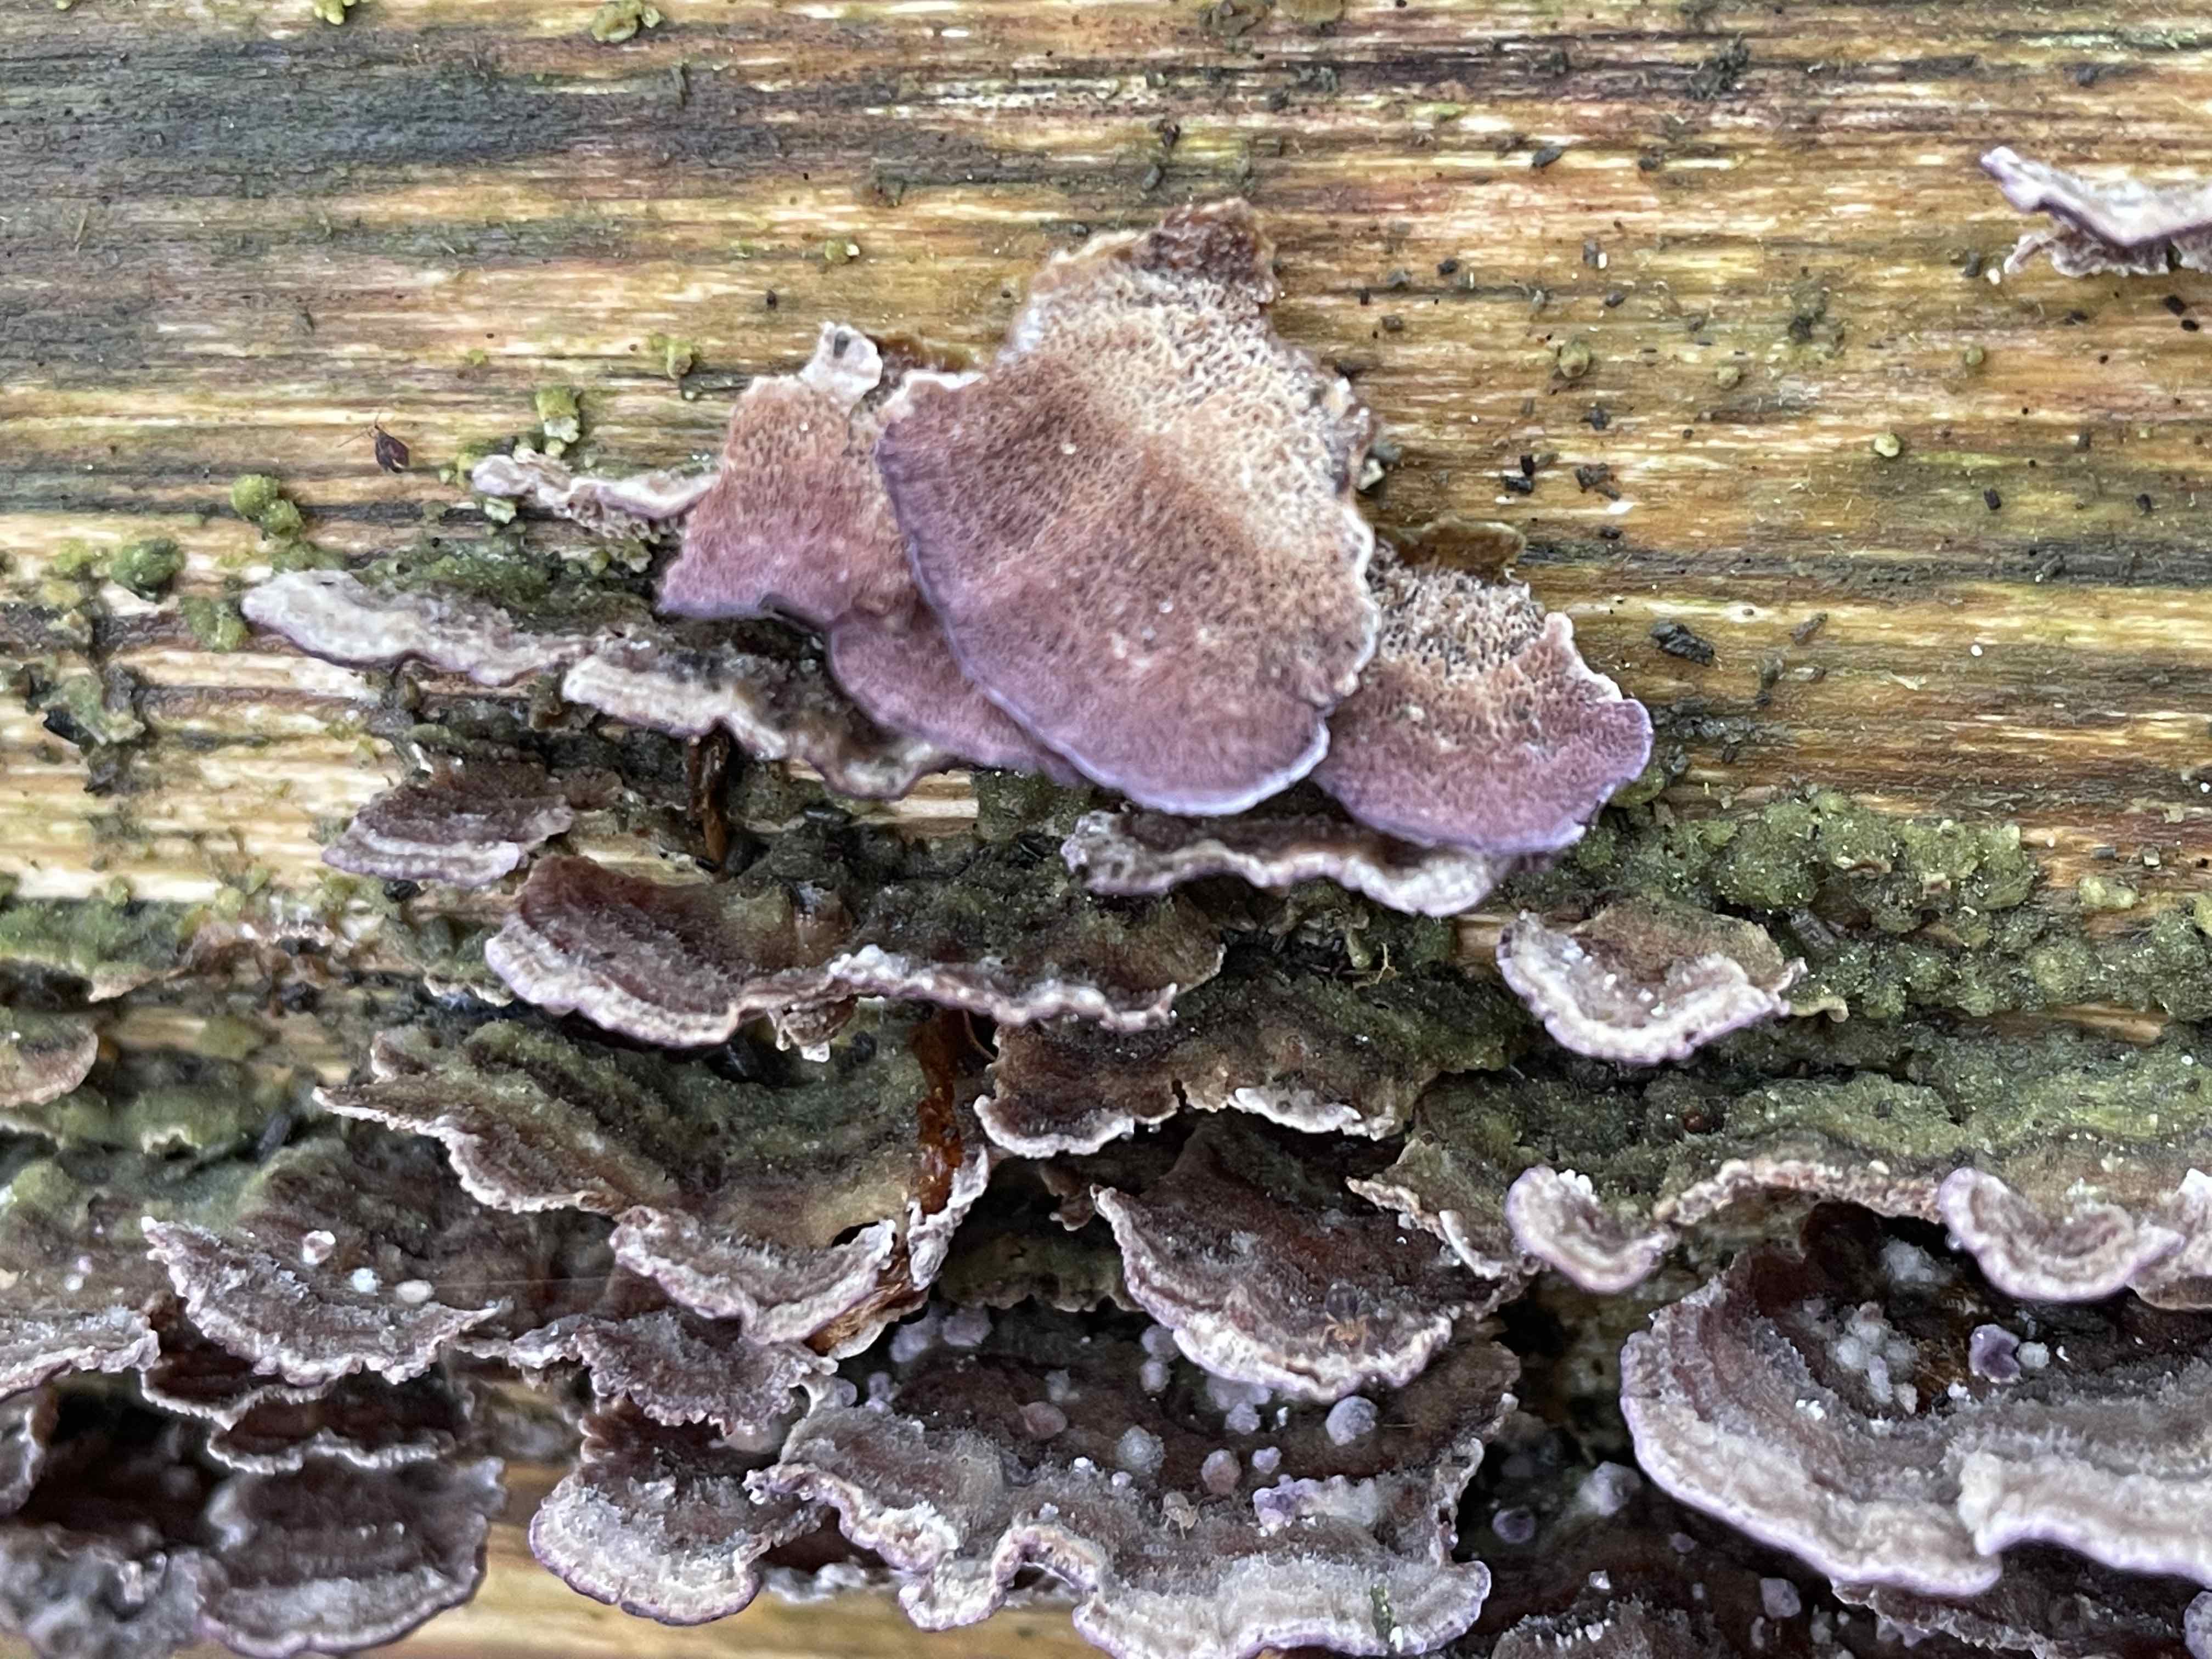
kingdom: Fungi
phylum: Basidiomycota
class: Agaricomycetes
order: Hymenochaetales
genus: Trichaptum
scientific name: Trichaptum abietinum
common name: almindelig violporesvamp
